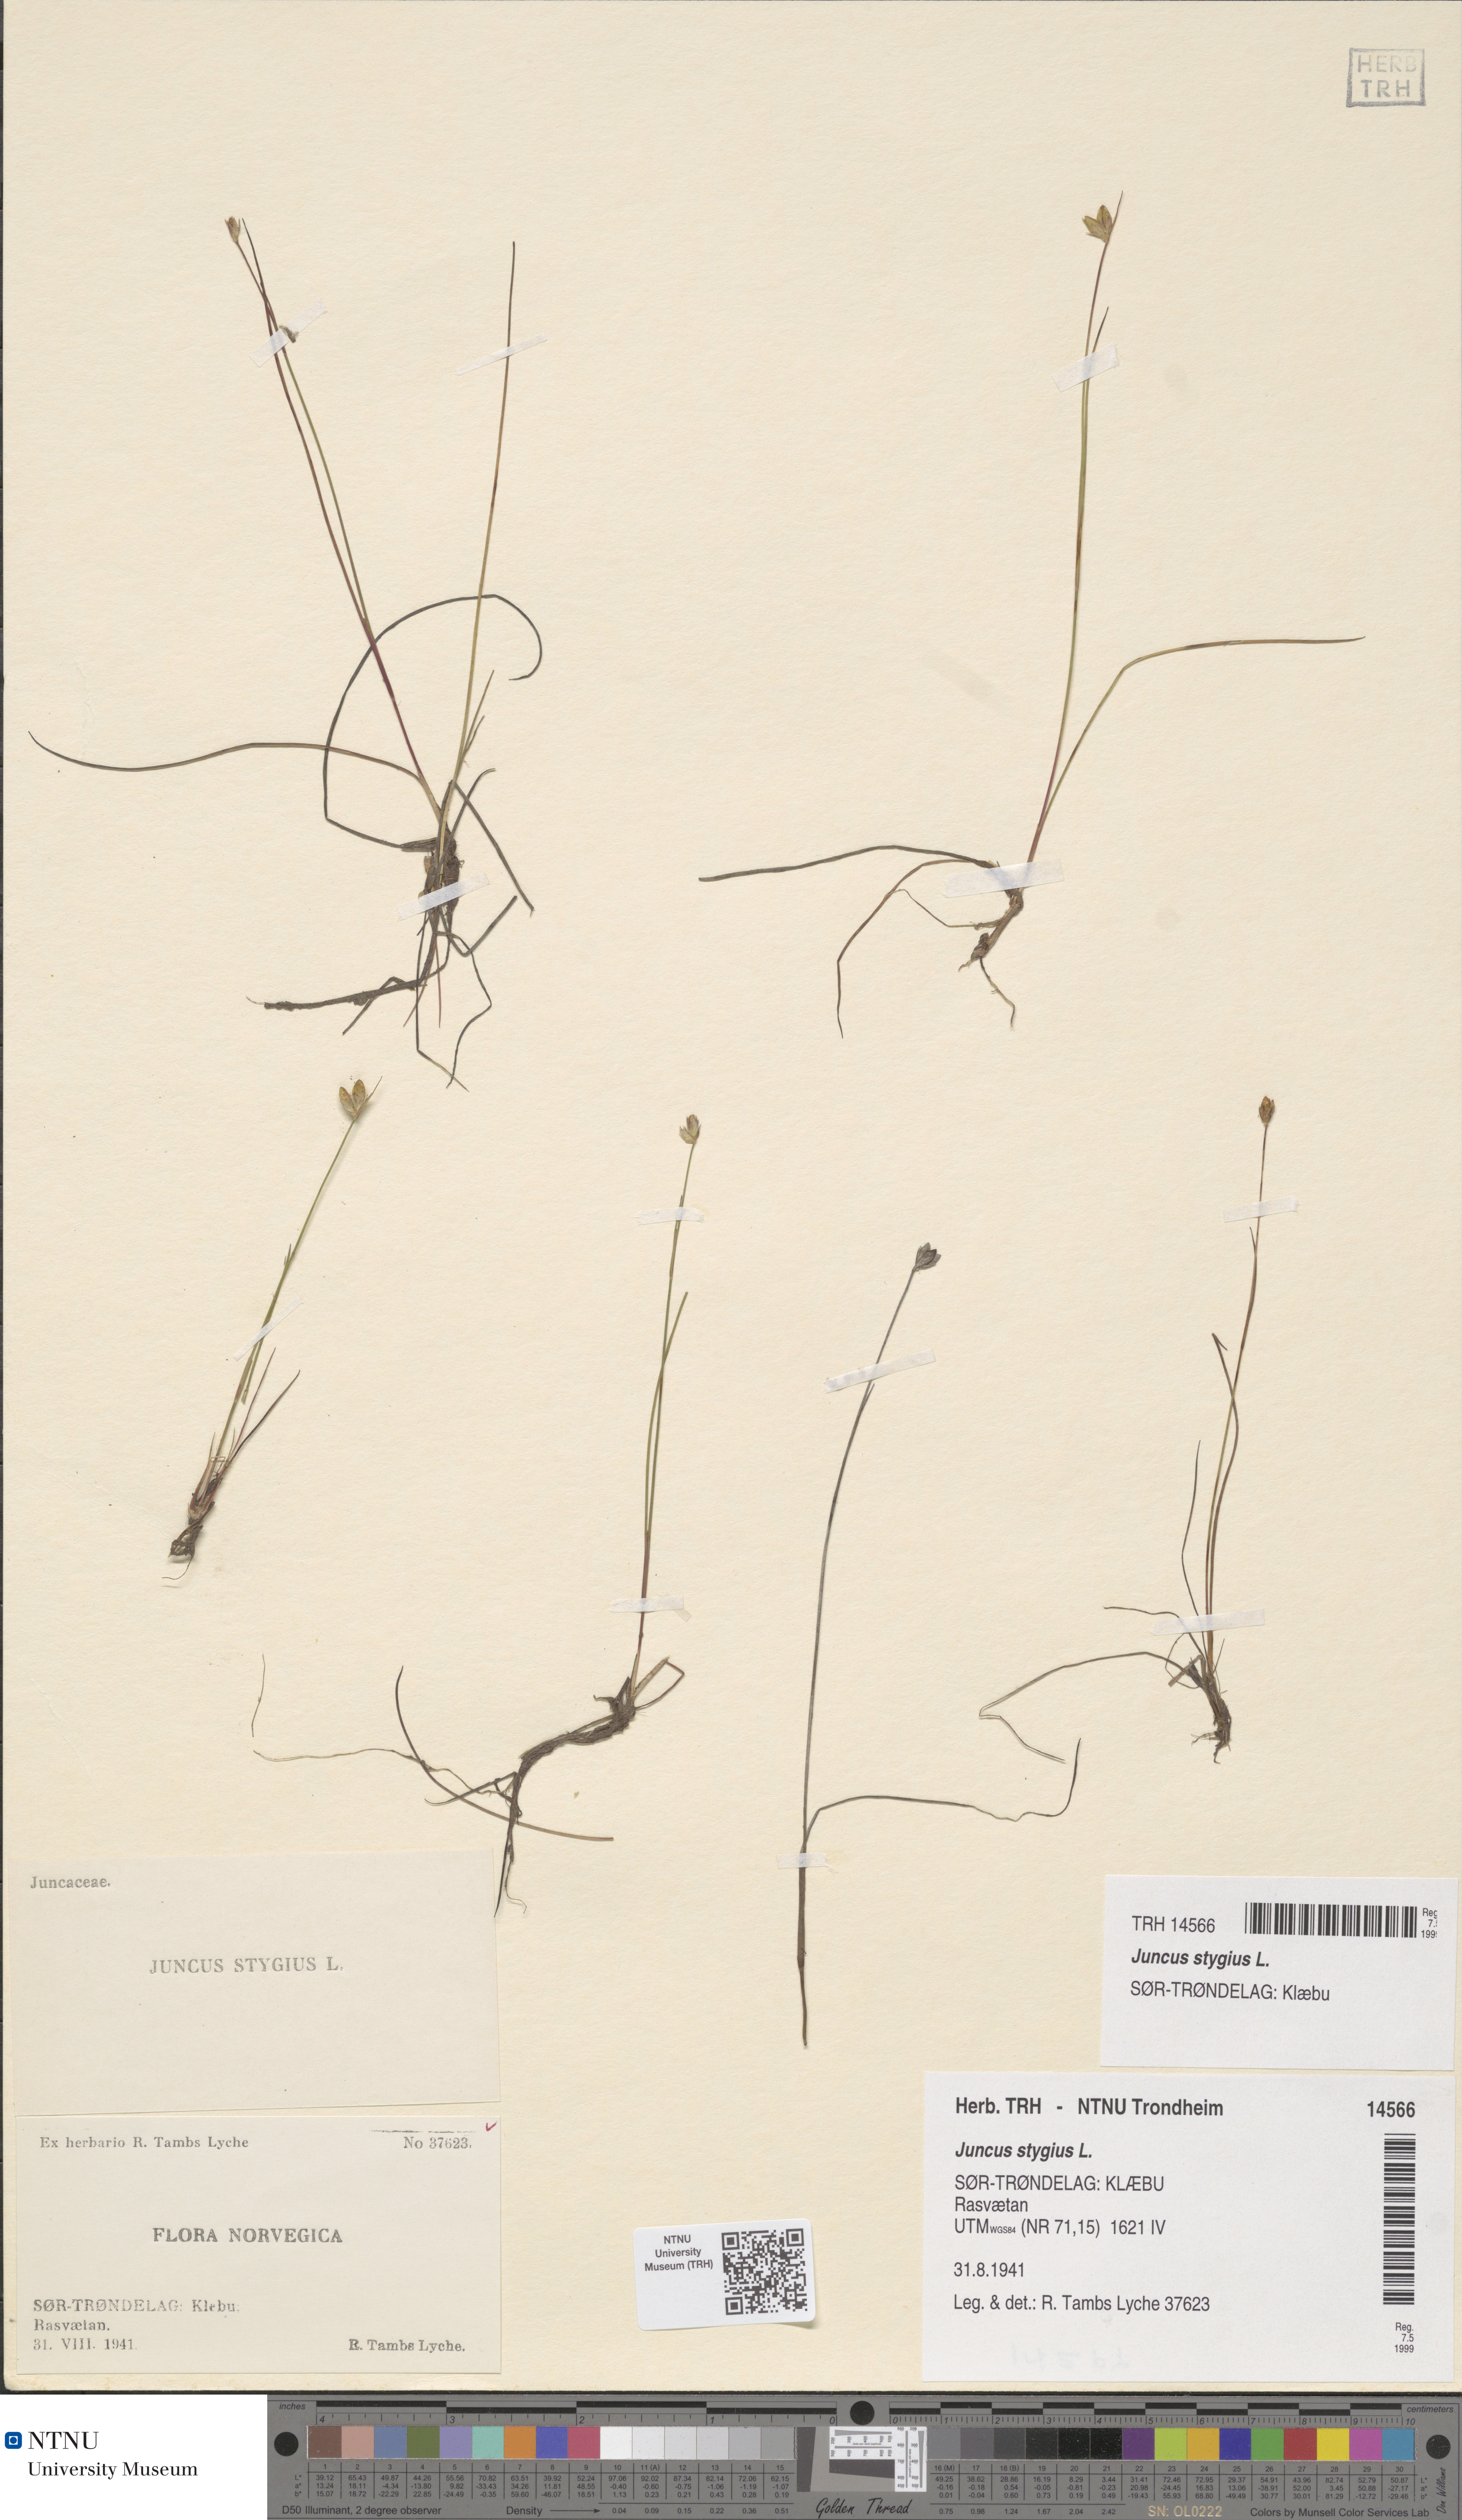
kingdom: Plantae
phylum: Tracheophyta
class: Liliopsida
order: Poales
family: Juncaceae
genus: Juncus
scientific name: Juncus stygius
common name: Bog rush
